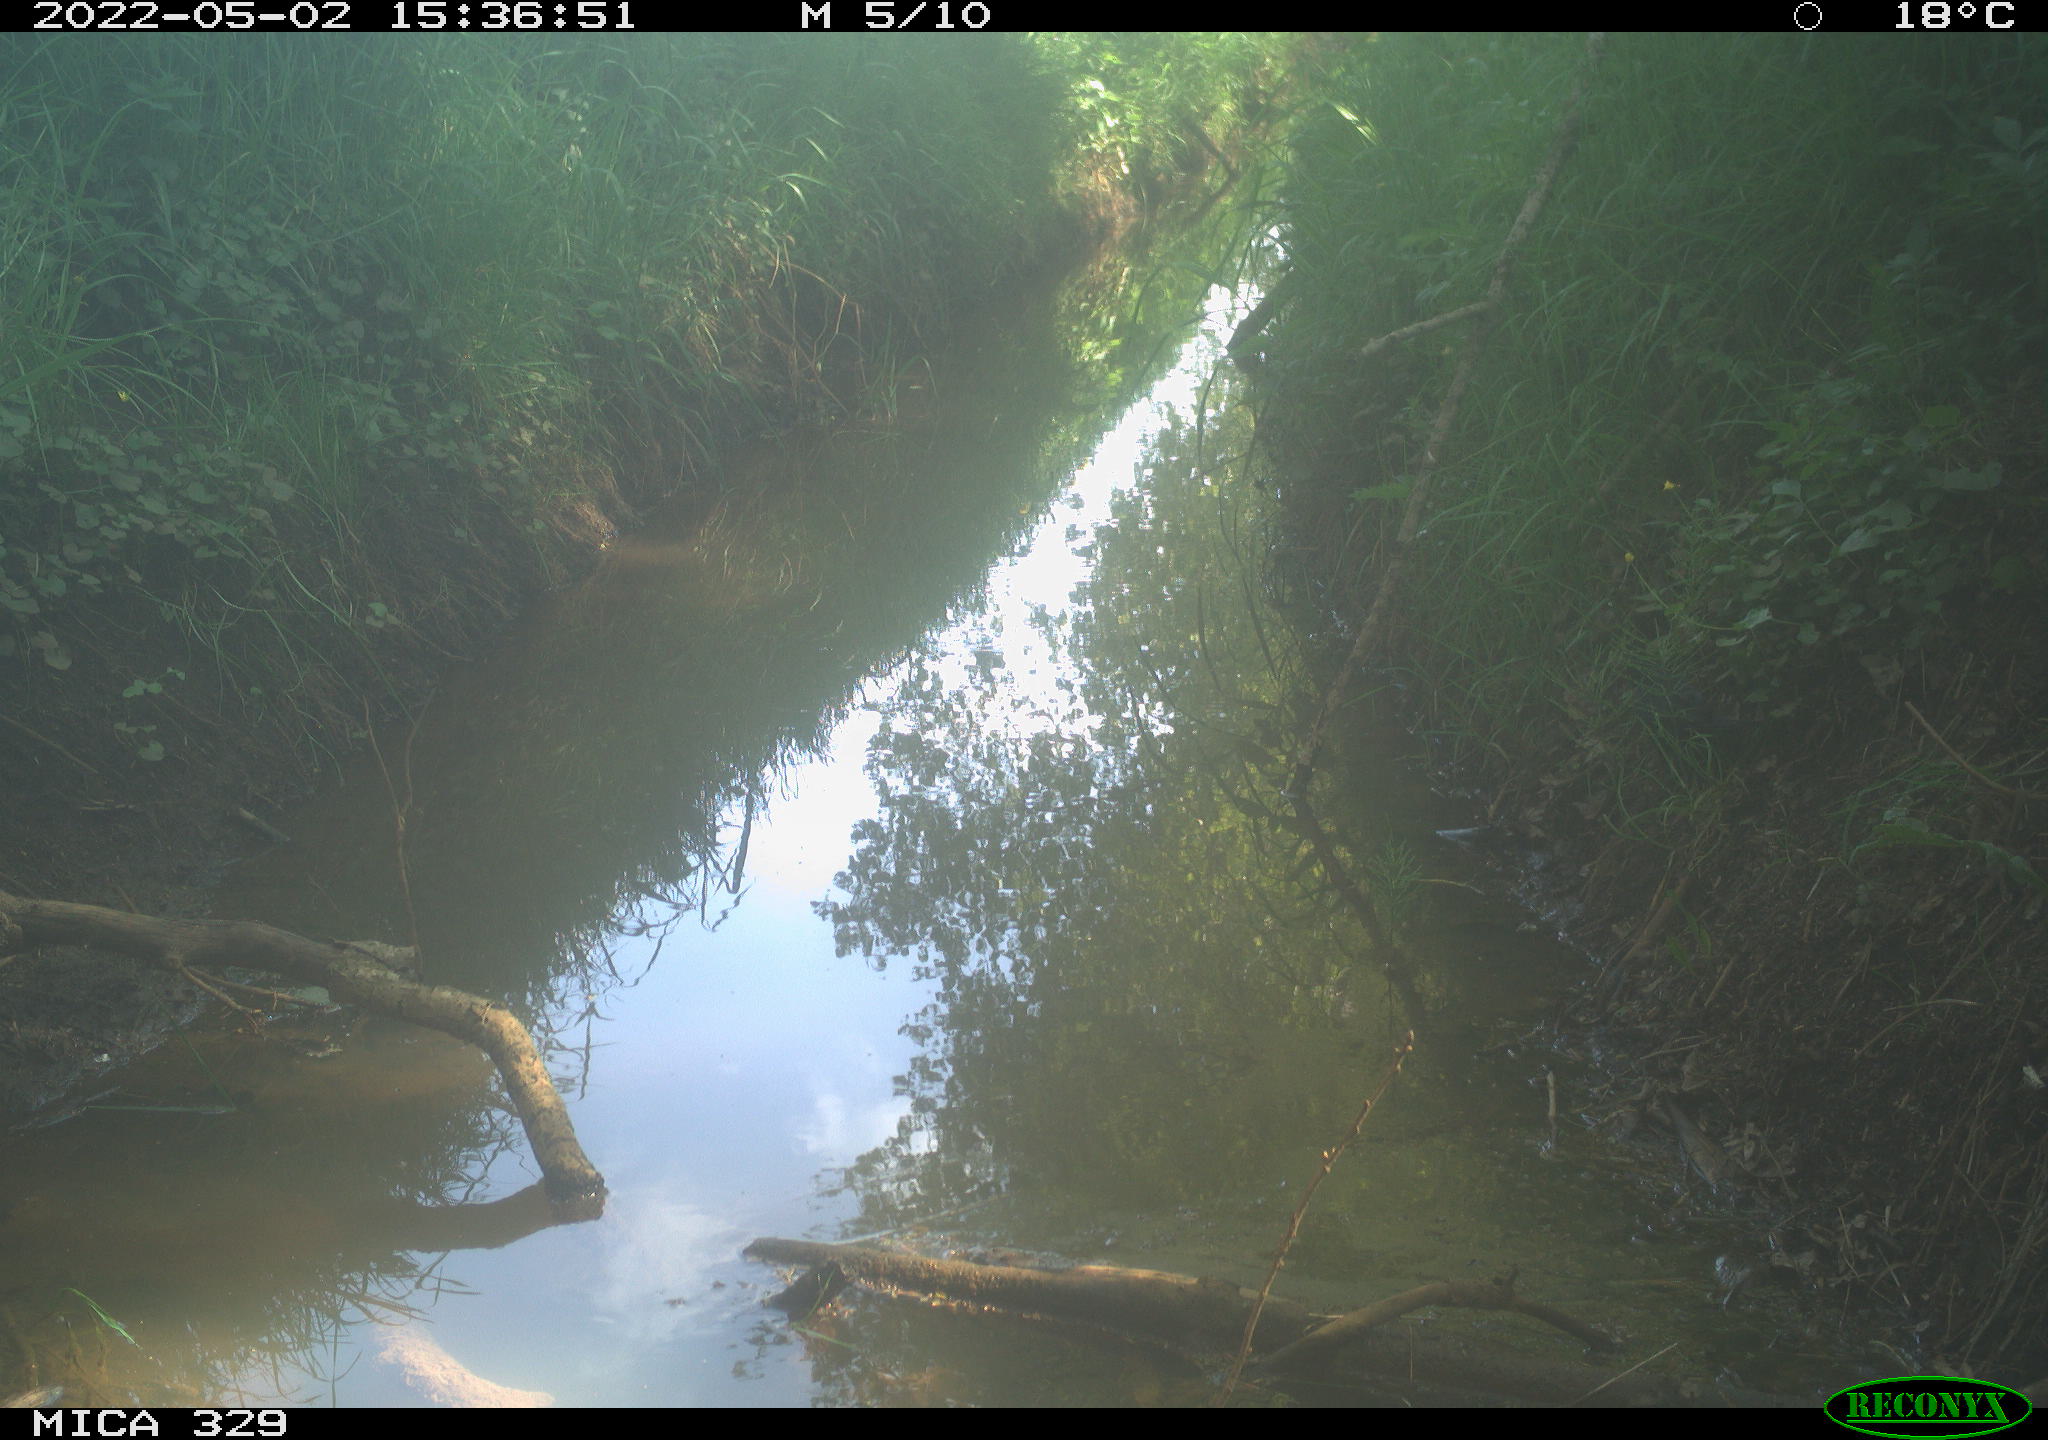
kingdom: Animalia
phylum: Chordata
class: Aves
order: Passeriformes
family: Turdidae
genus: Turdus
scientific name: Turdus merula
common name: Common blackbird
